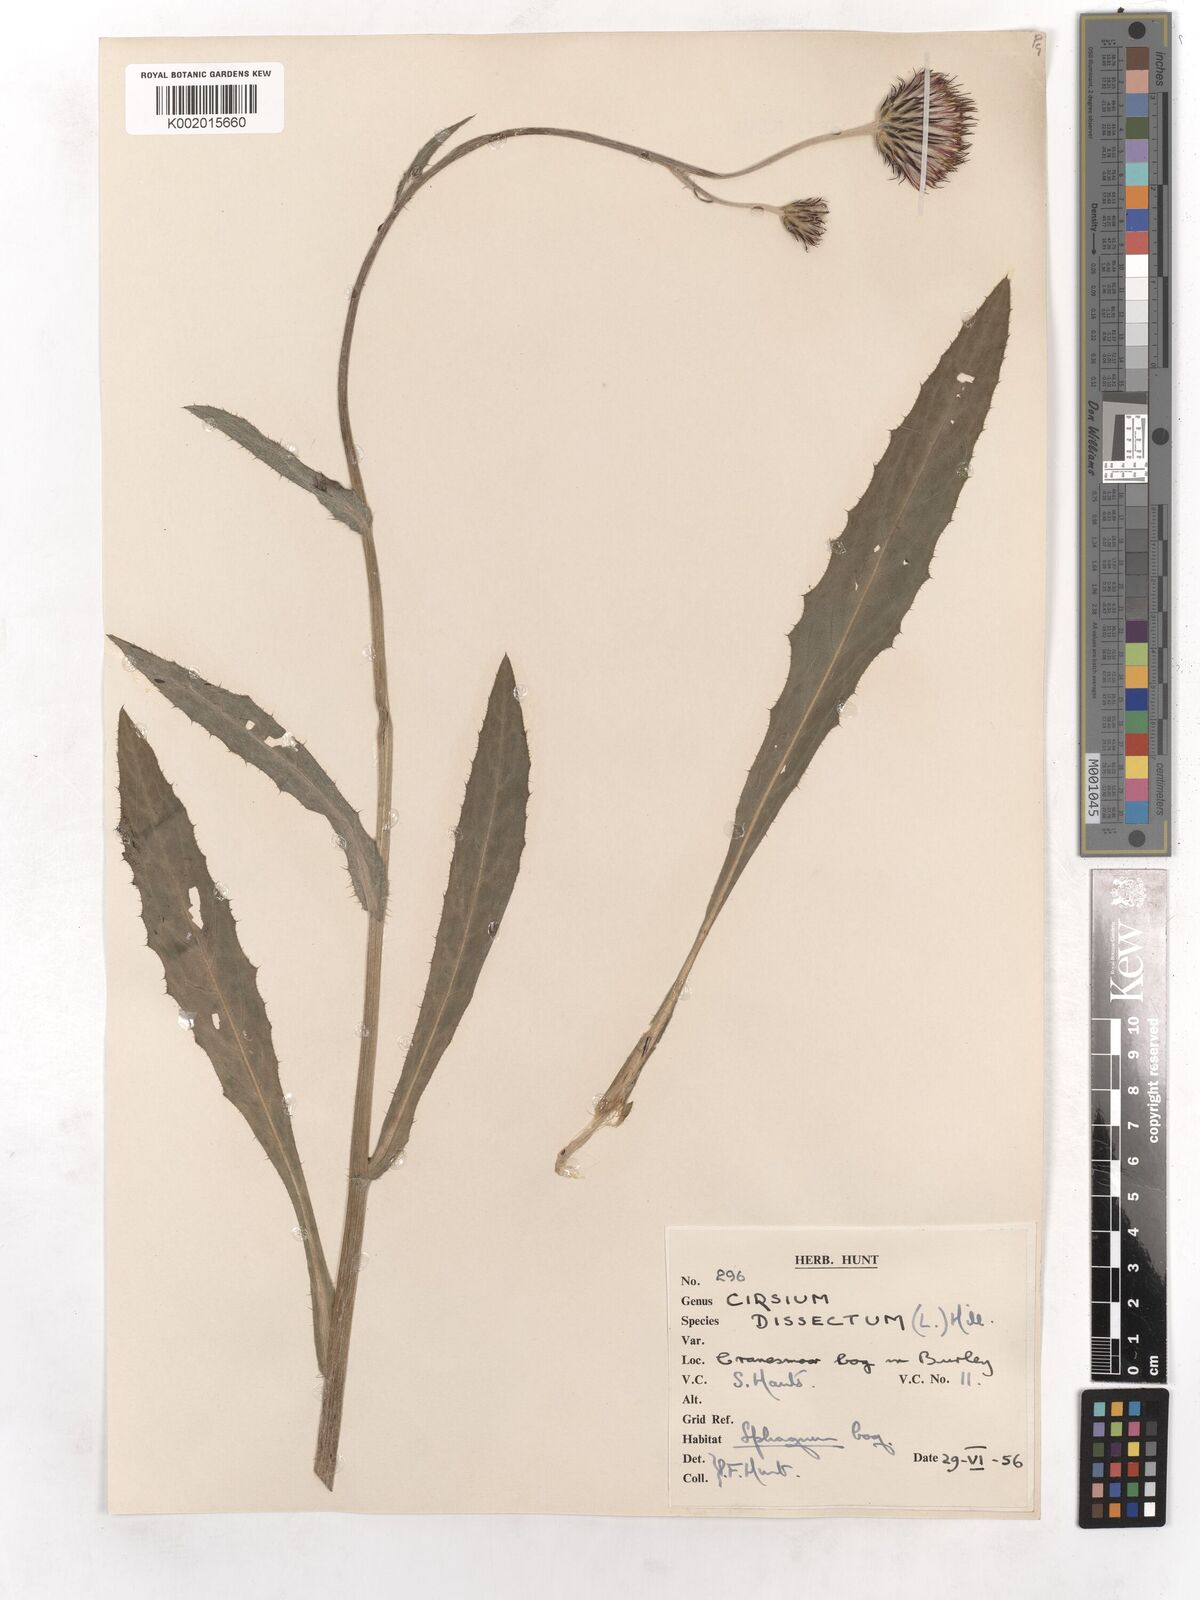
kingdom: Plantae
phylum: Tracheophyta
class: Magnoliopsida
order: Asterales
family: Asteraceae
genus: Cirsium
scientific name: Cirsium dissectum
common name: Meadow thistle
